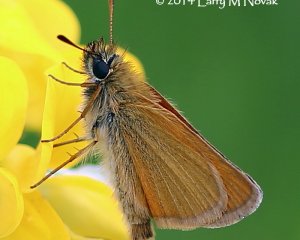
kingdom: Animalia
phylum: Arthropoda
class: Insecta
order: Lepidoptera
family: Hesperiidae
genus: Thymelicus
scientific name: Thymelicus lineola
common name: European Skipper
